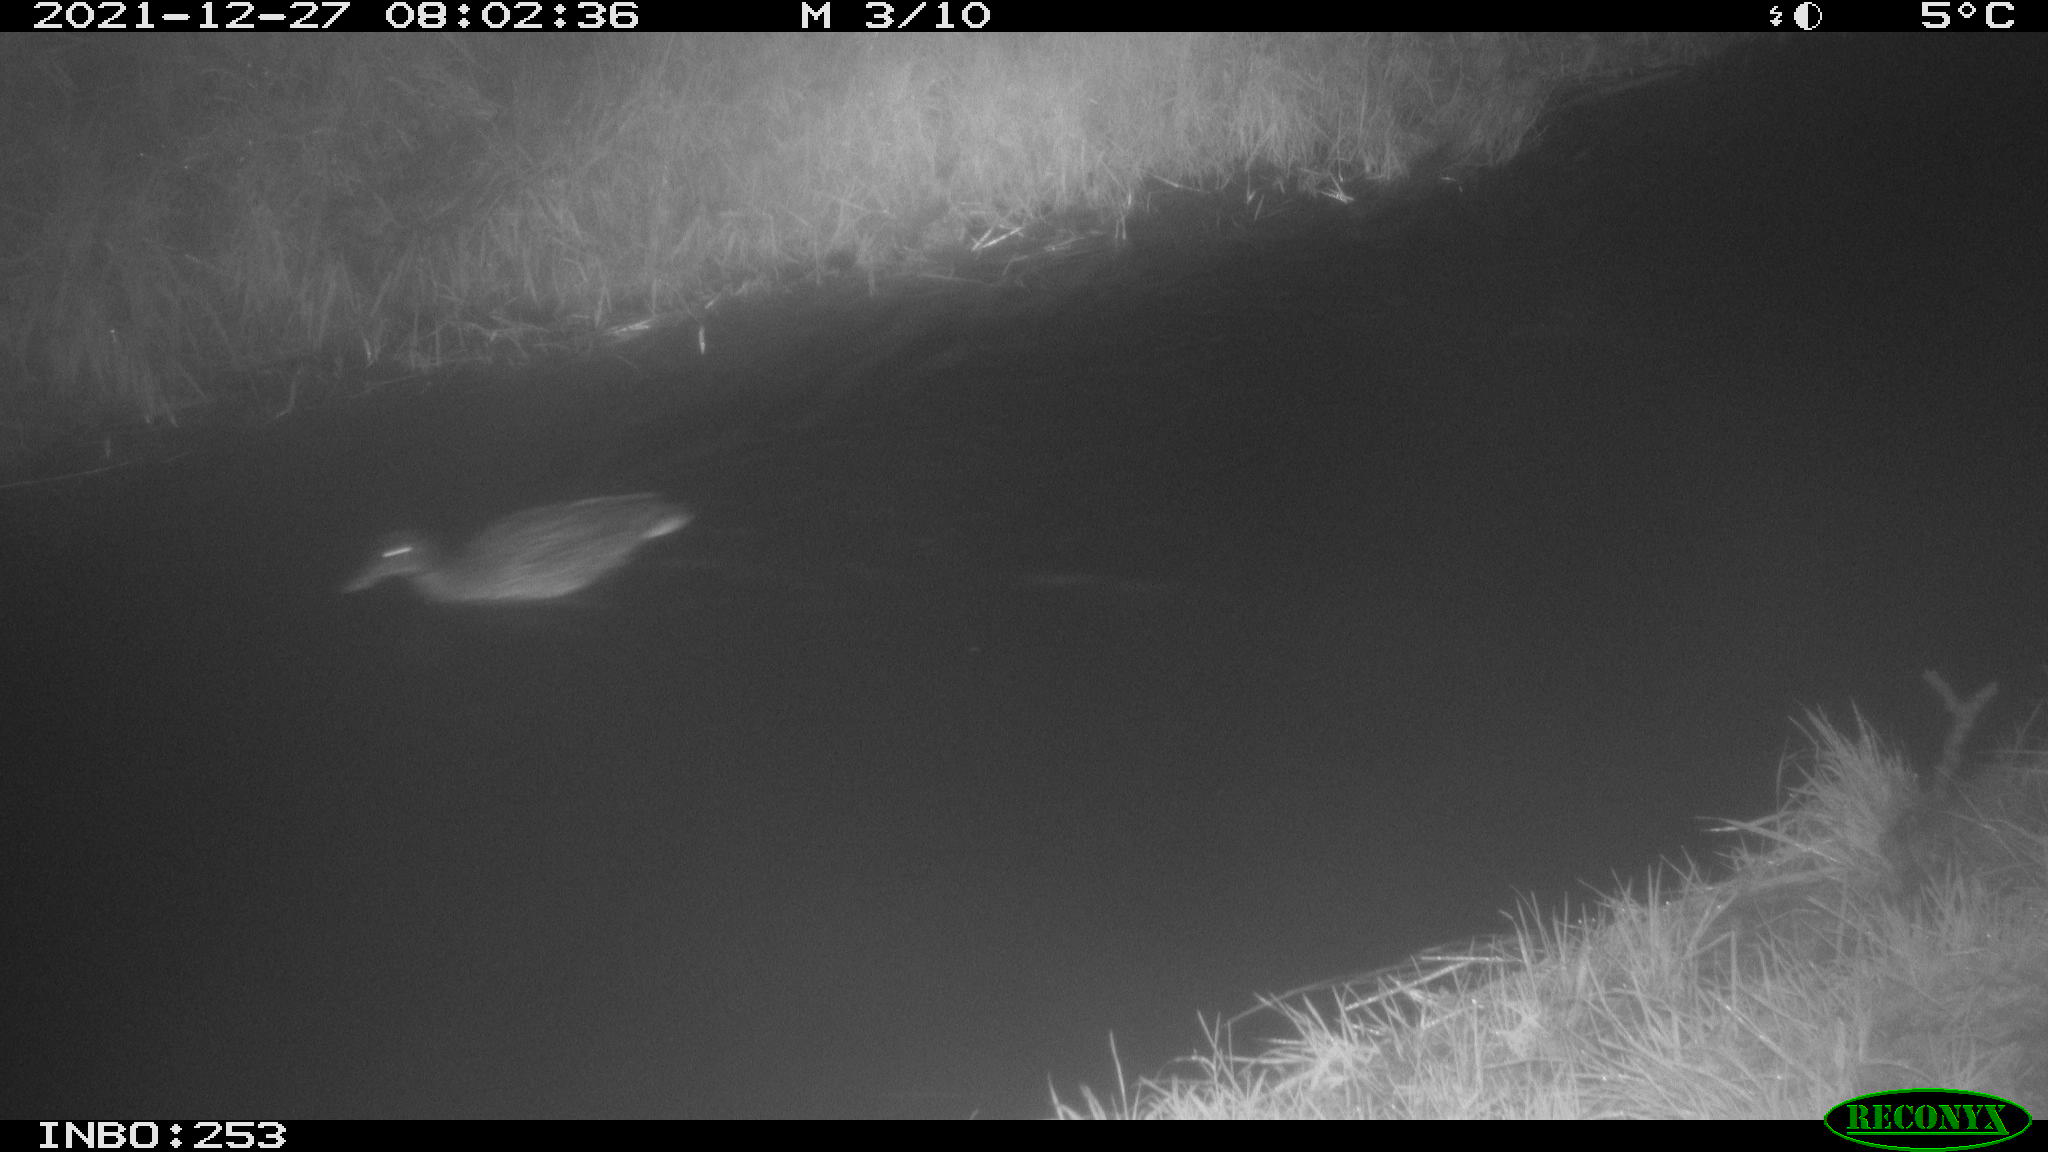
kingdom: Animalia
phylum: Chordata
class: Aves
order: Anseriformes
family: Anatidae
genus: Anas
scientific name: Anas platyrhynchos
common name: Mallard
